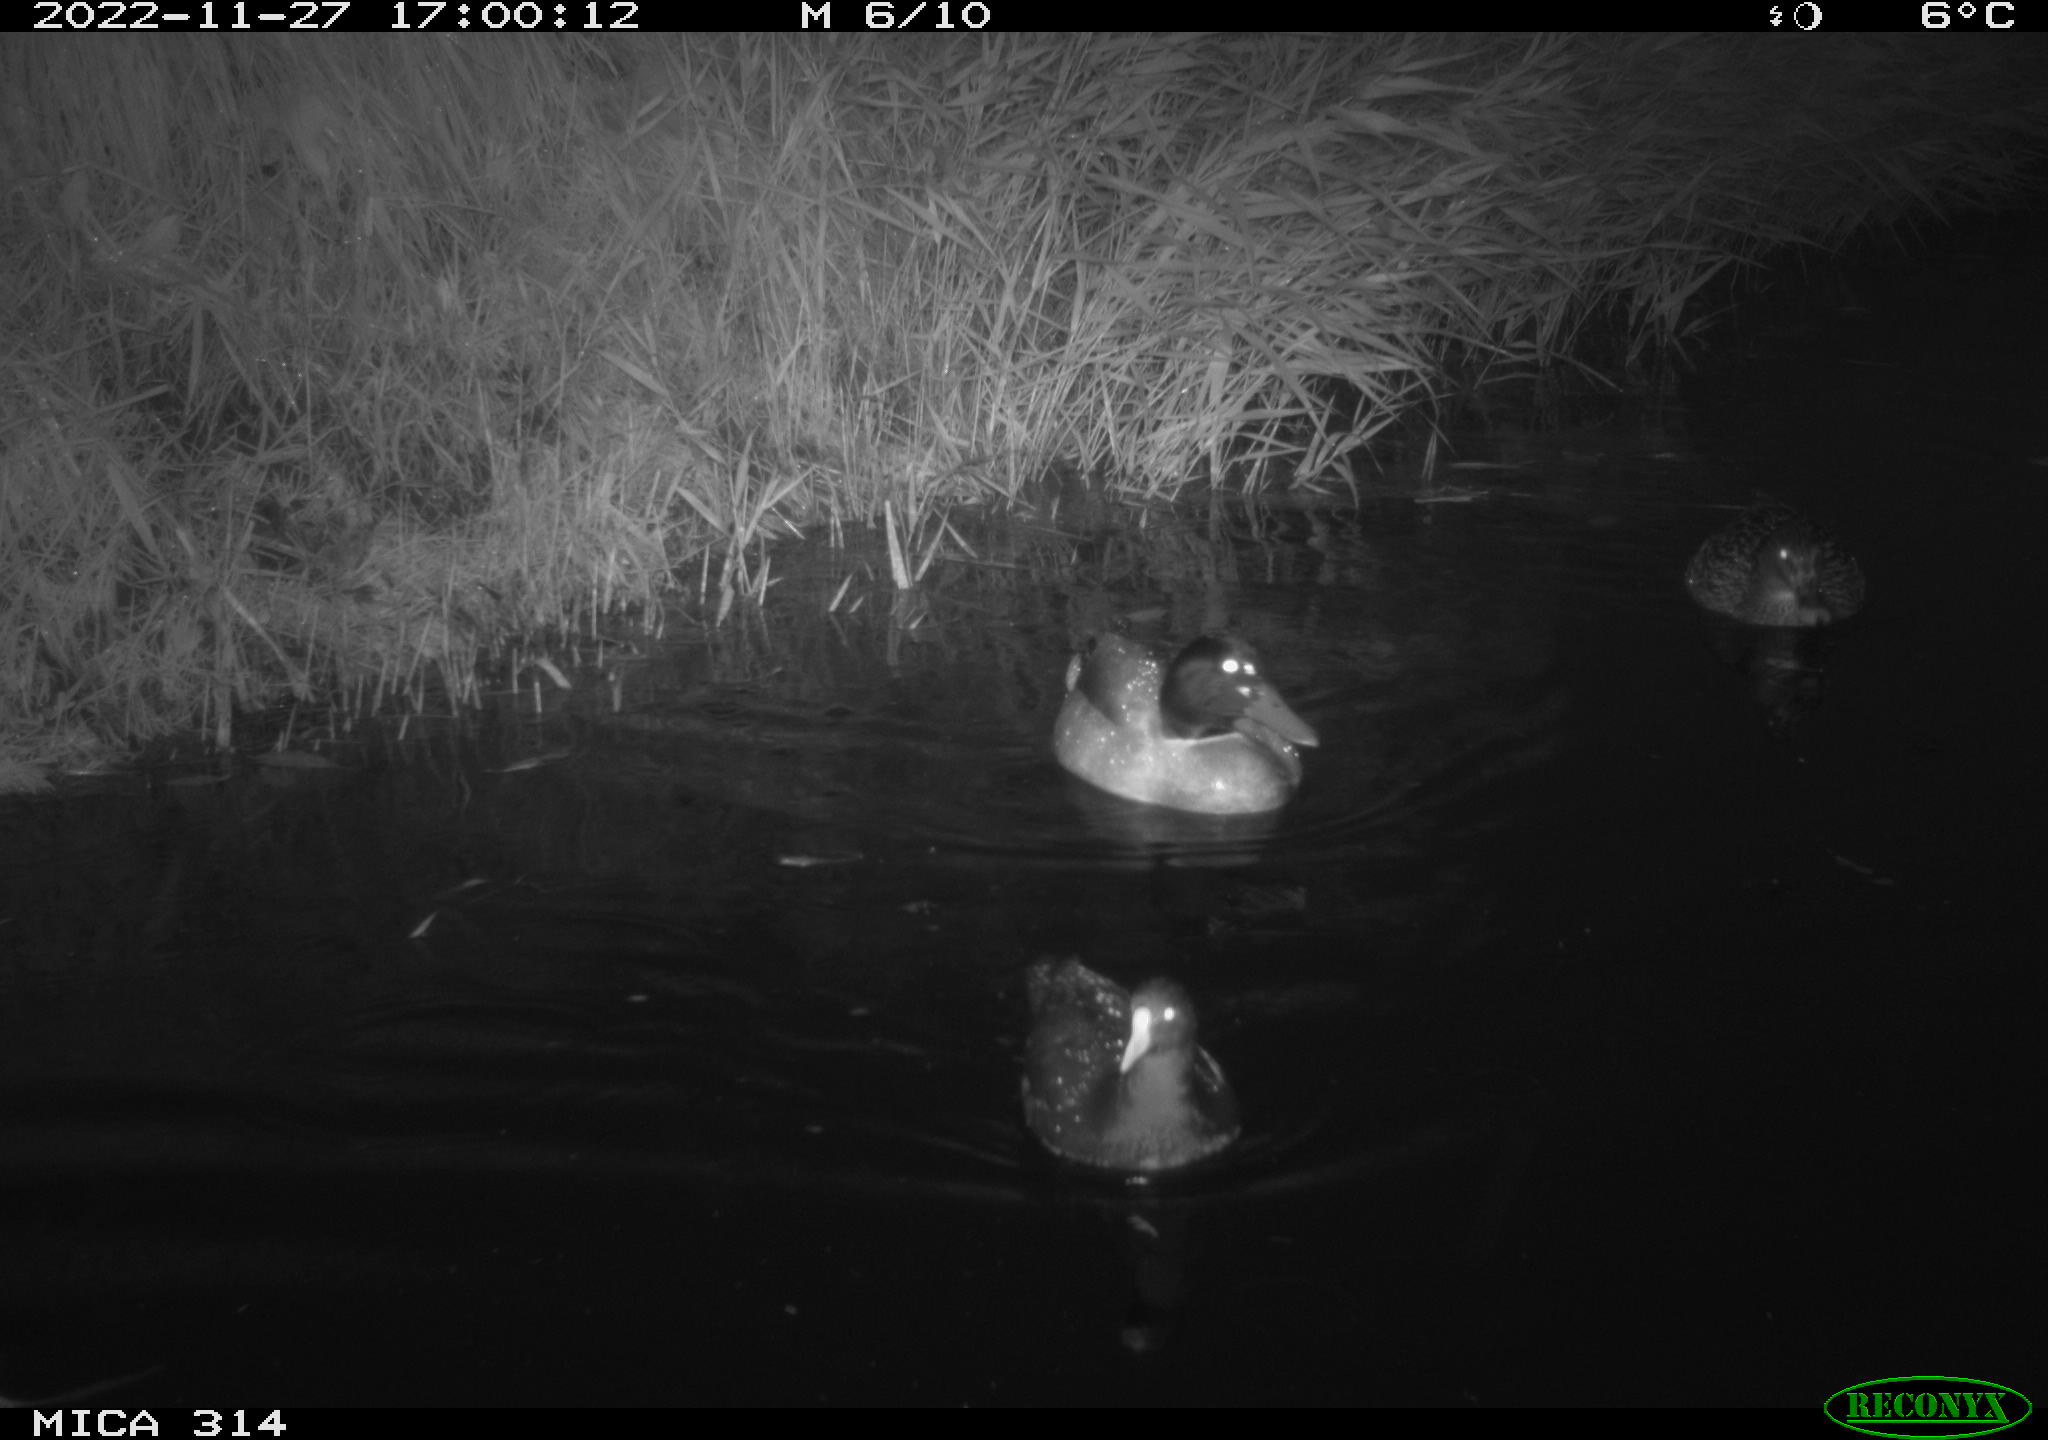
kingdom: Animalia
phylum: Chordata
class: Aves
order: Gruiformes
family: Rallidae
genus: Gallinula
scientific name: Gallinula chloropus
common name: Common moorhen
